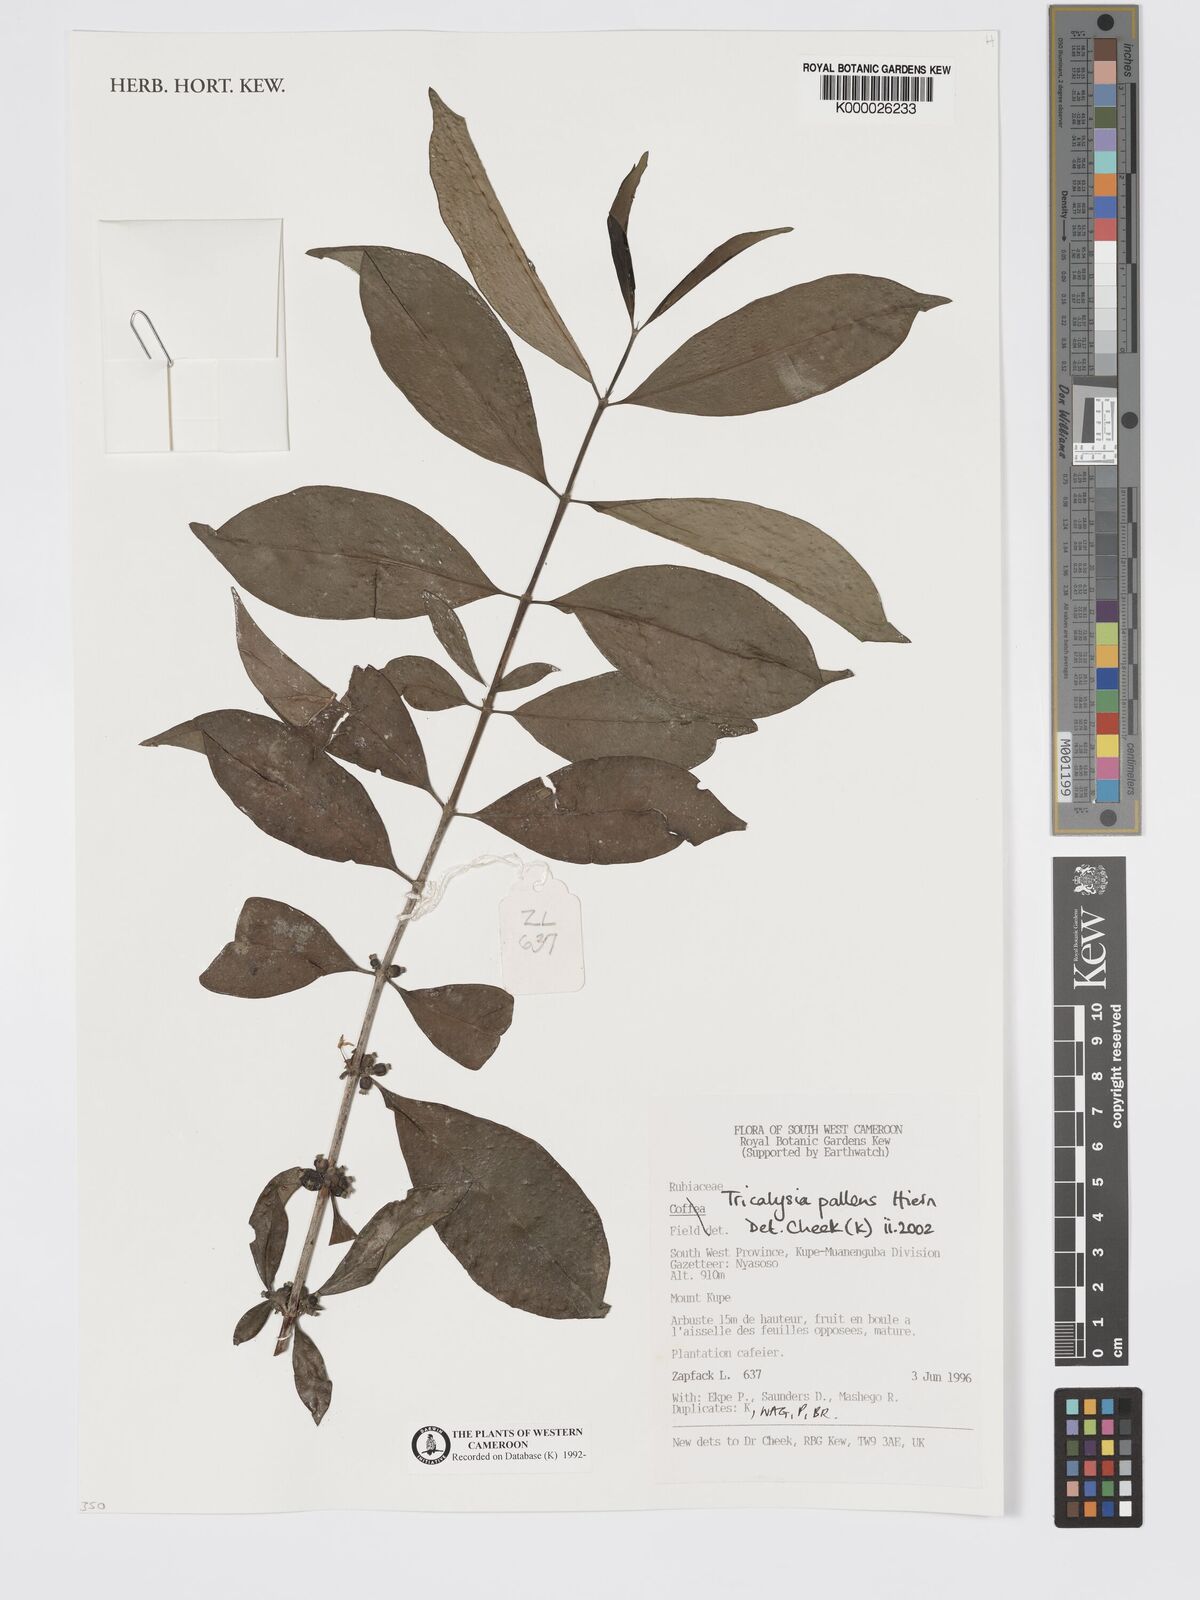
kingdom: Plantae
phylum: Tracheophyta
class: Magnoliopsida
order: Gentianales
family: Rubiaceae
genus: Tricalysia
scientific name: Tricalysia pallens
